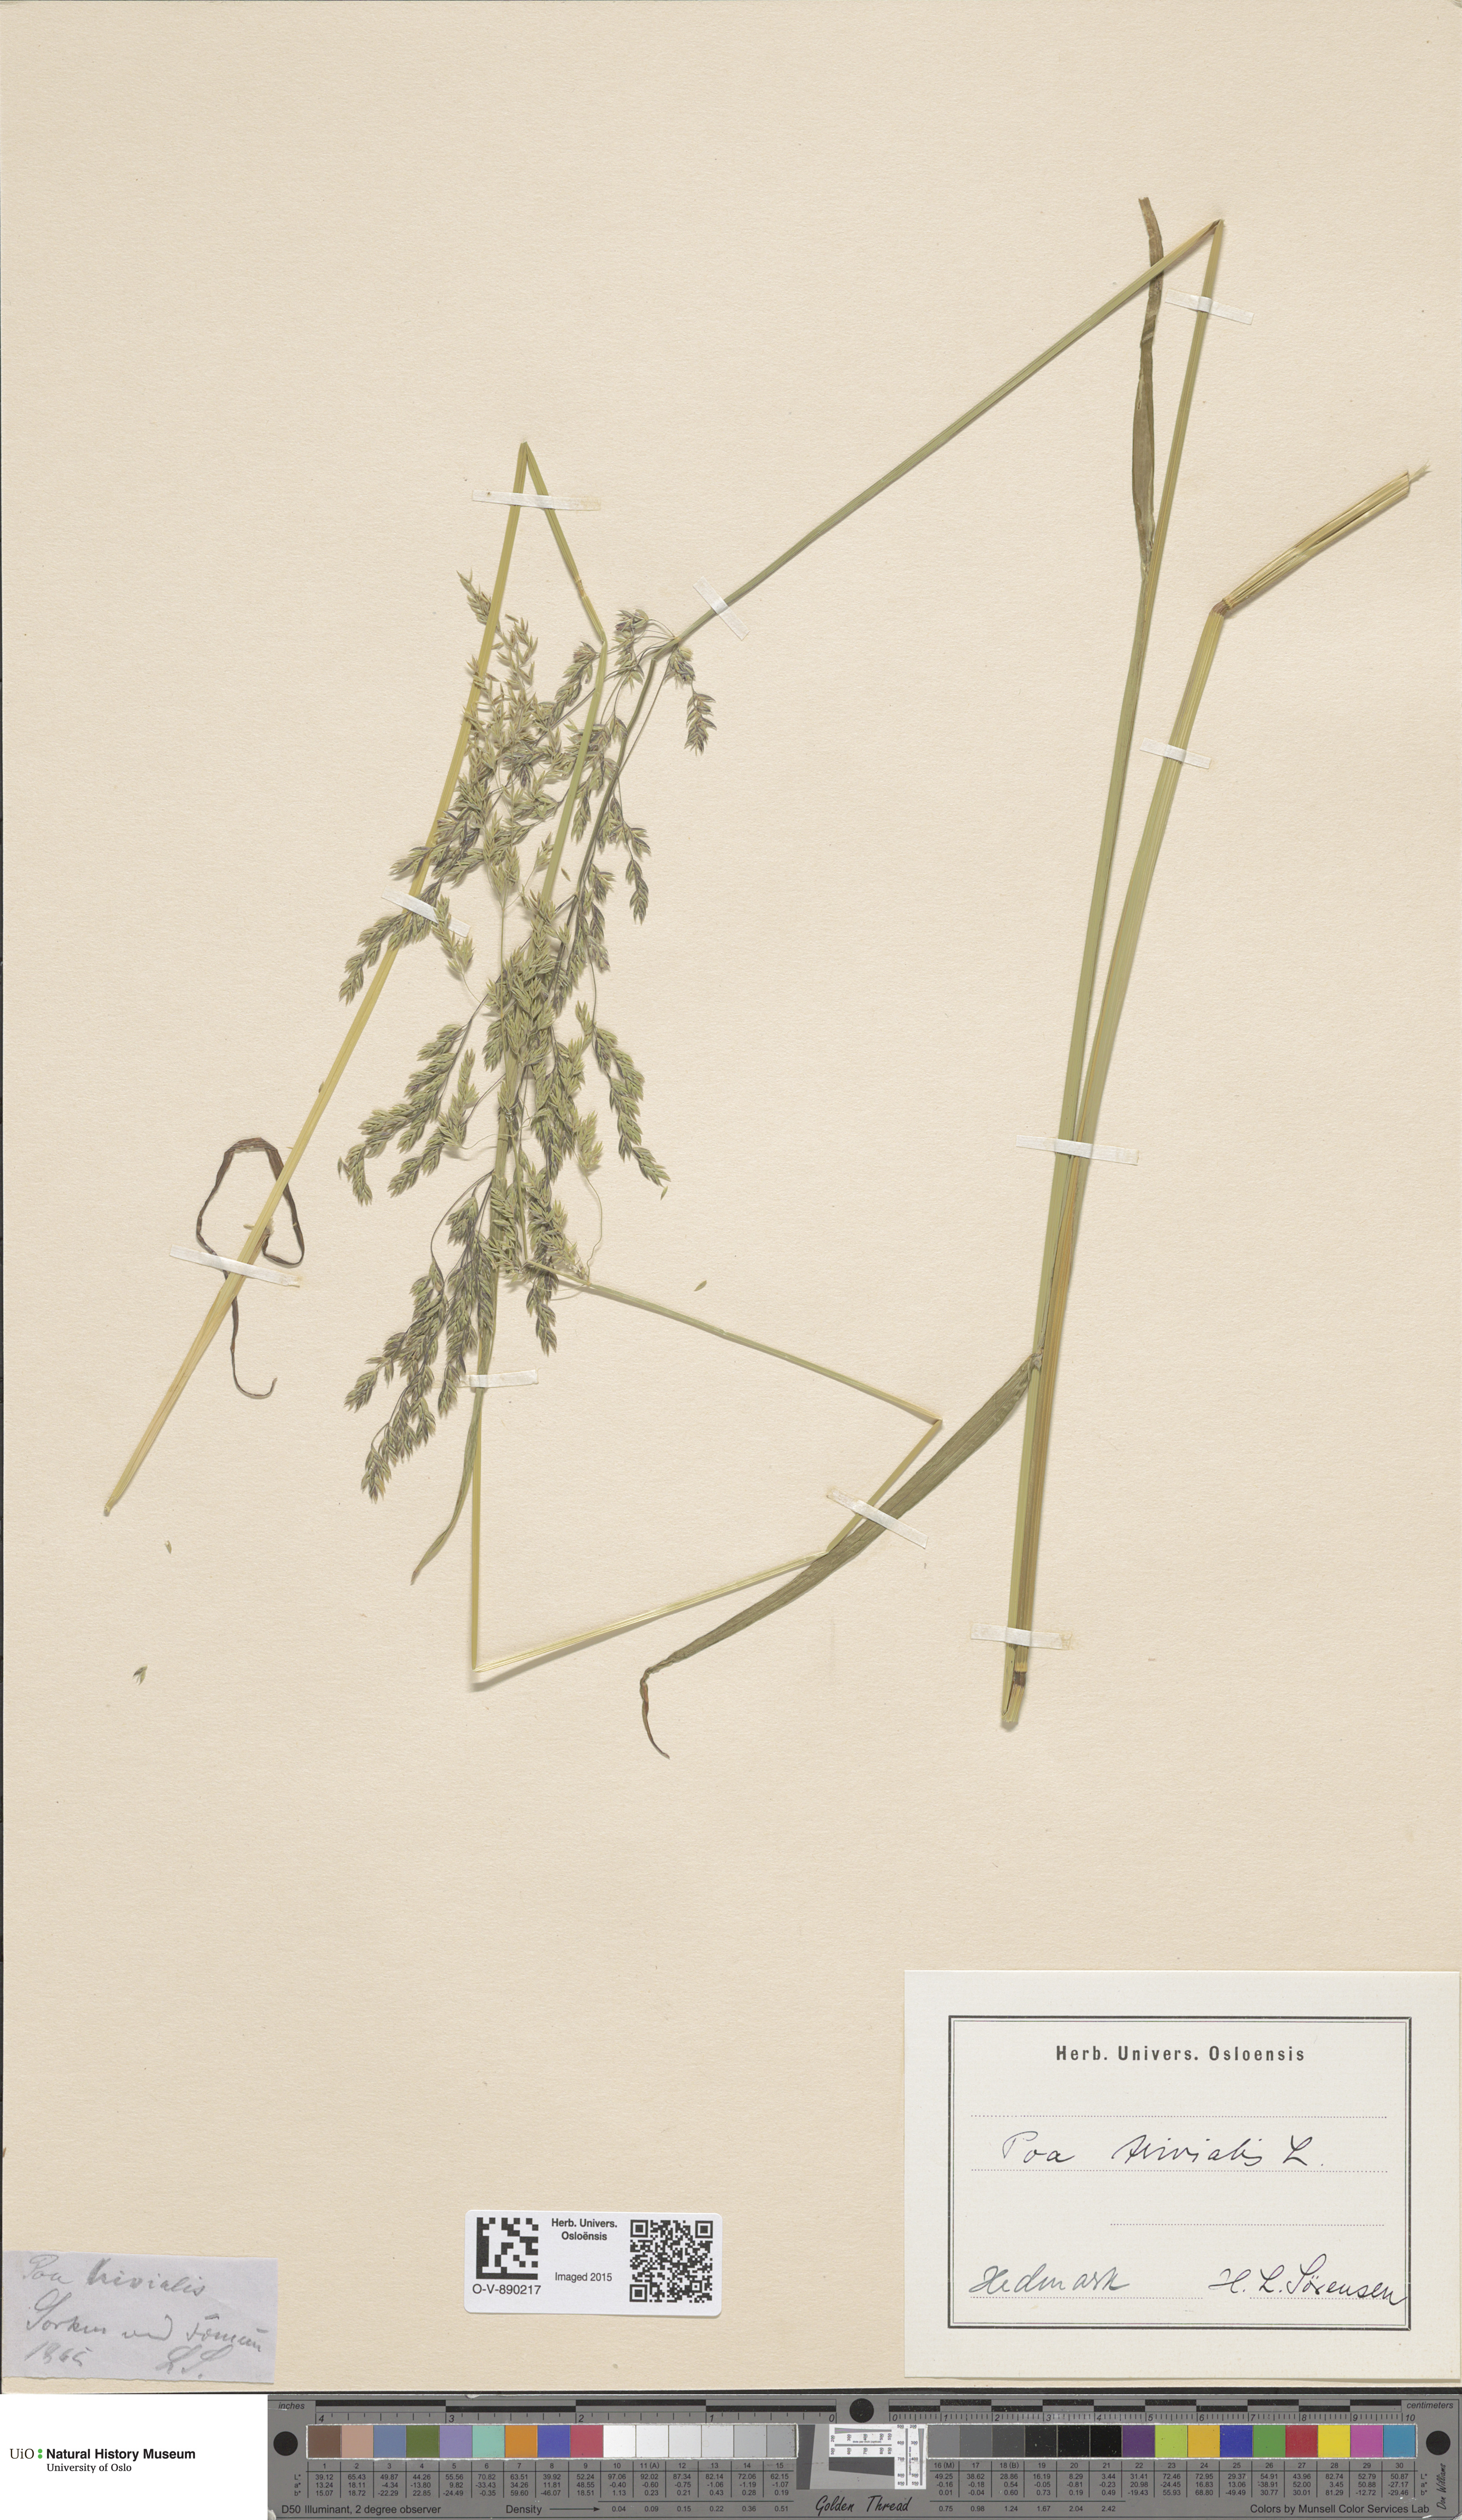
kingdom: Plantae
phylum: Tracheophyta
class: Liliopsida
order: Poales
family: Poaceae
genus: Poa
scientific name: Poa trivialis
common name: Rough bluegrass
